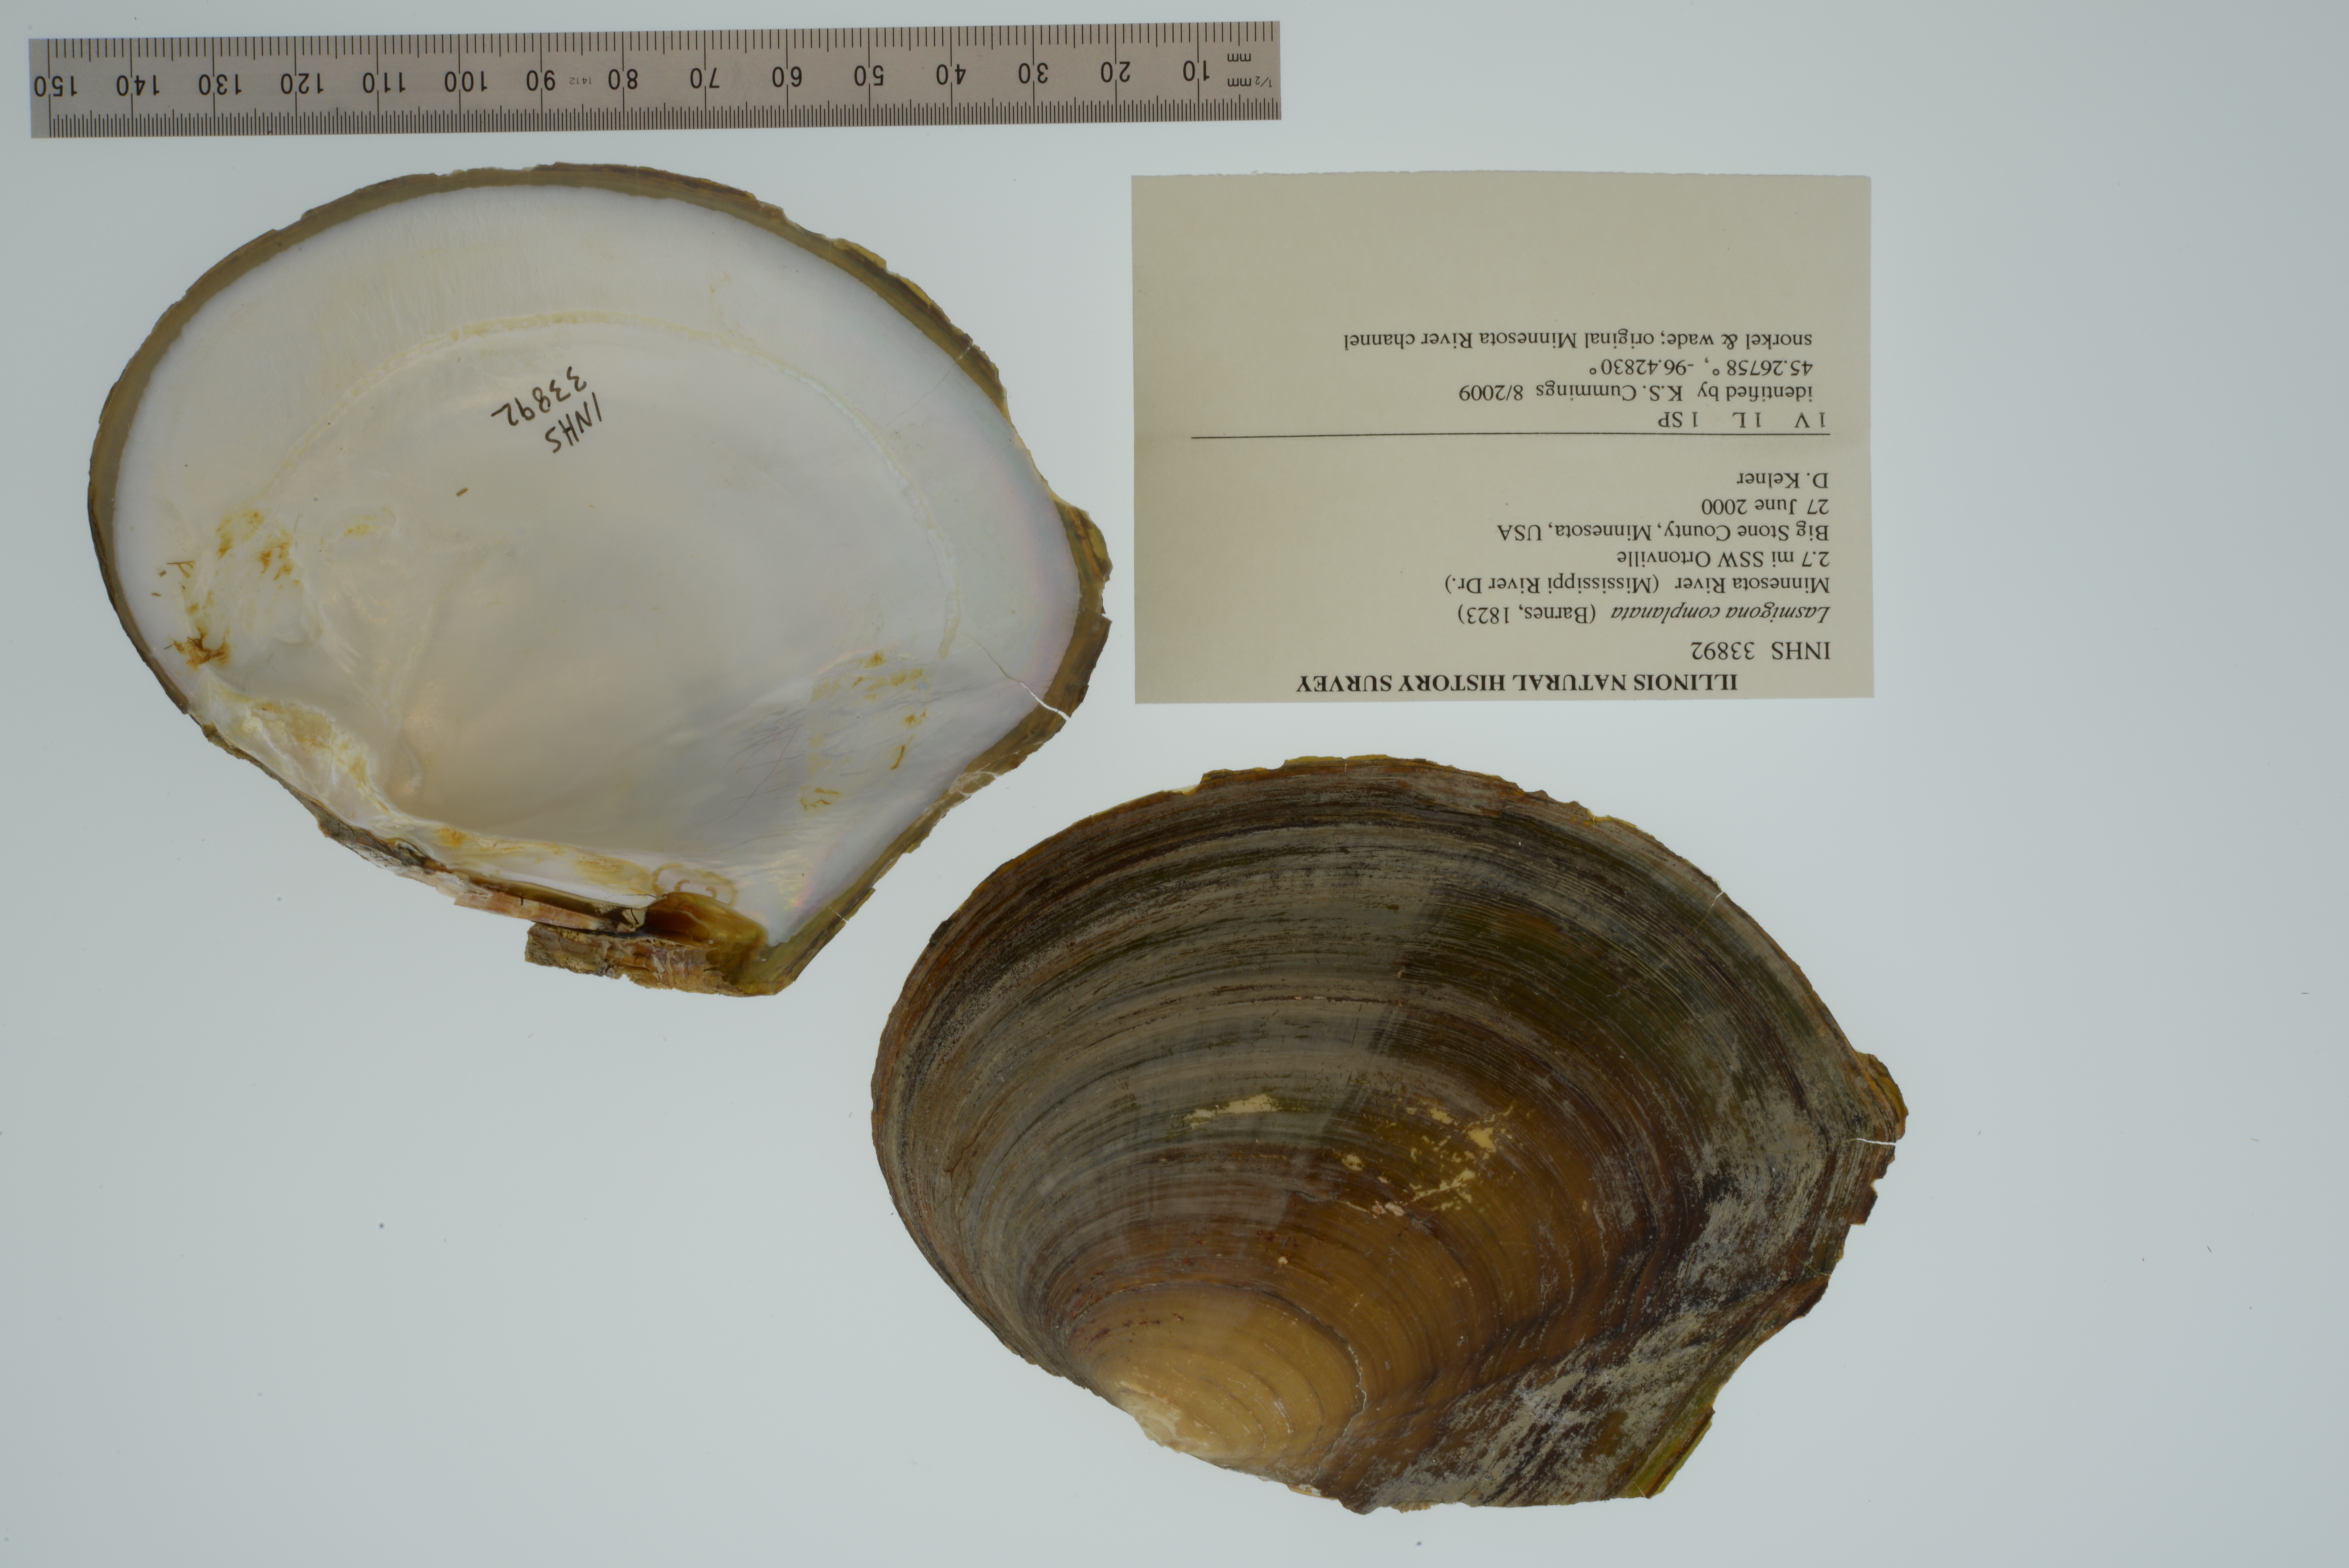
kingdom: Animalia
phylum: Mollusca
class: Bivalvia
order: Unionida
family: Unionidae
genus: Lasmigona
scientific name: Lasmigona complanata
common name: White heelsplitter
